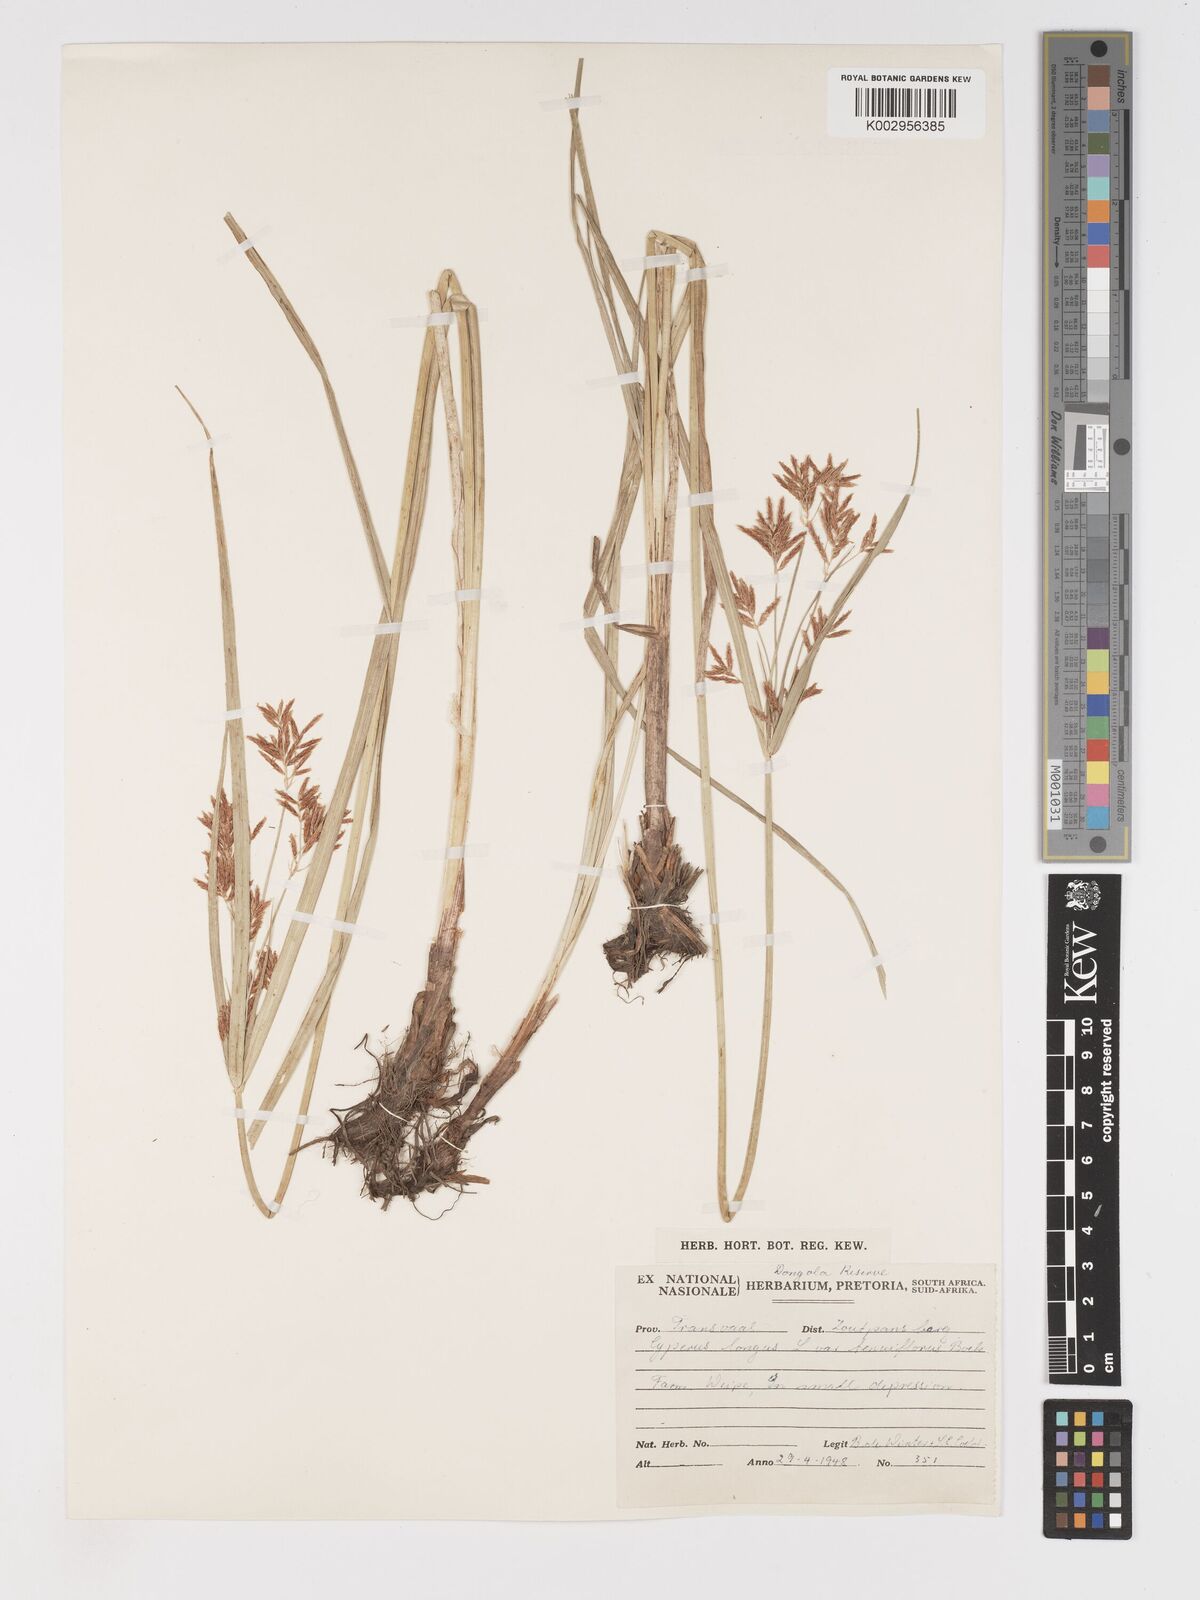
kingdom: Plantae
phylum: Tracheophyta
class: Liliopsida
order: Poales
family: Cyperaceae
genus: Cyperus
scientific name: Cyperus longus
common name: Galingale
